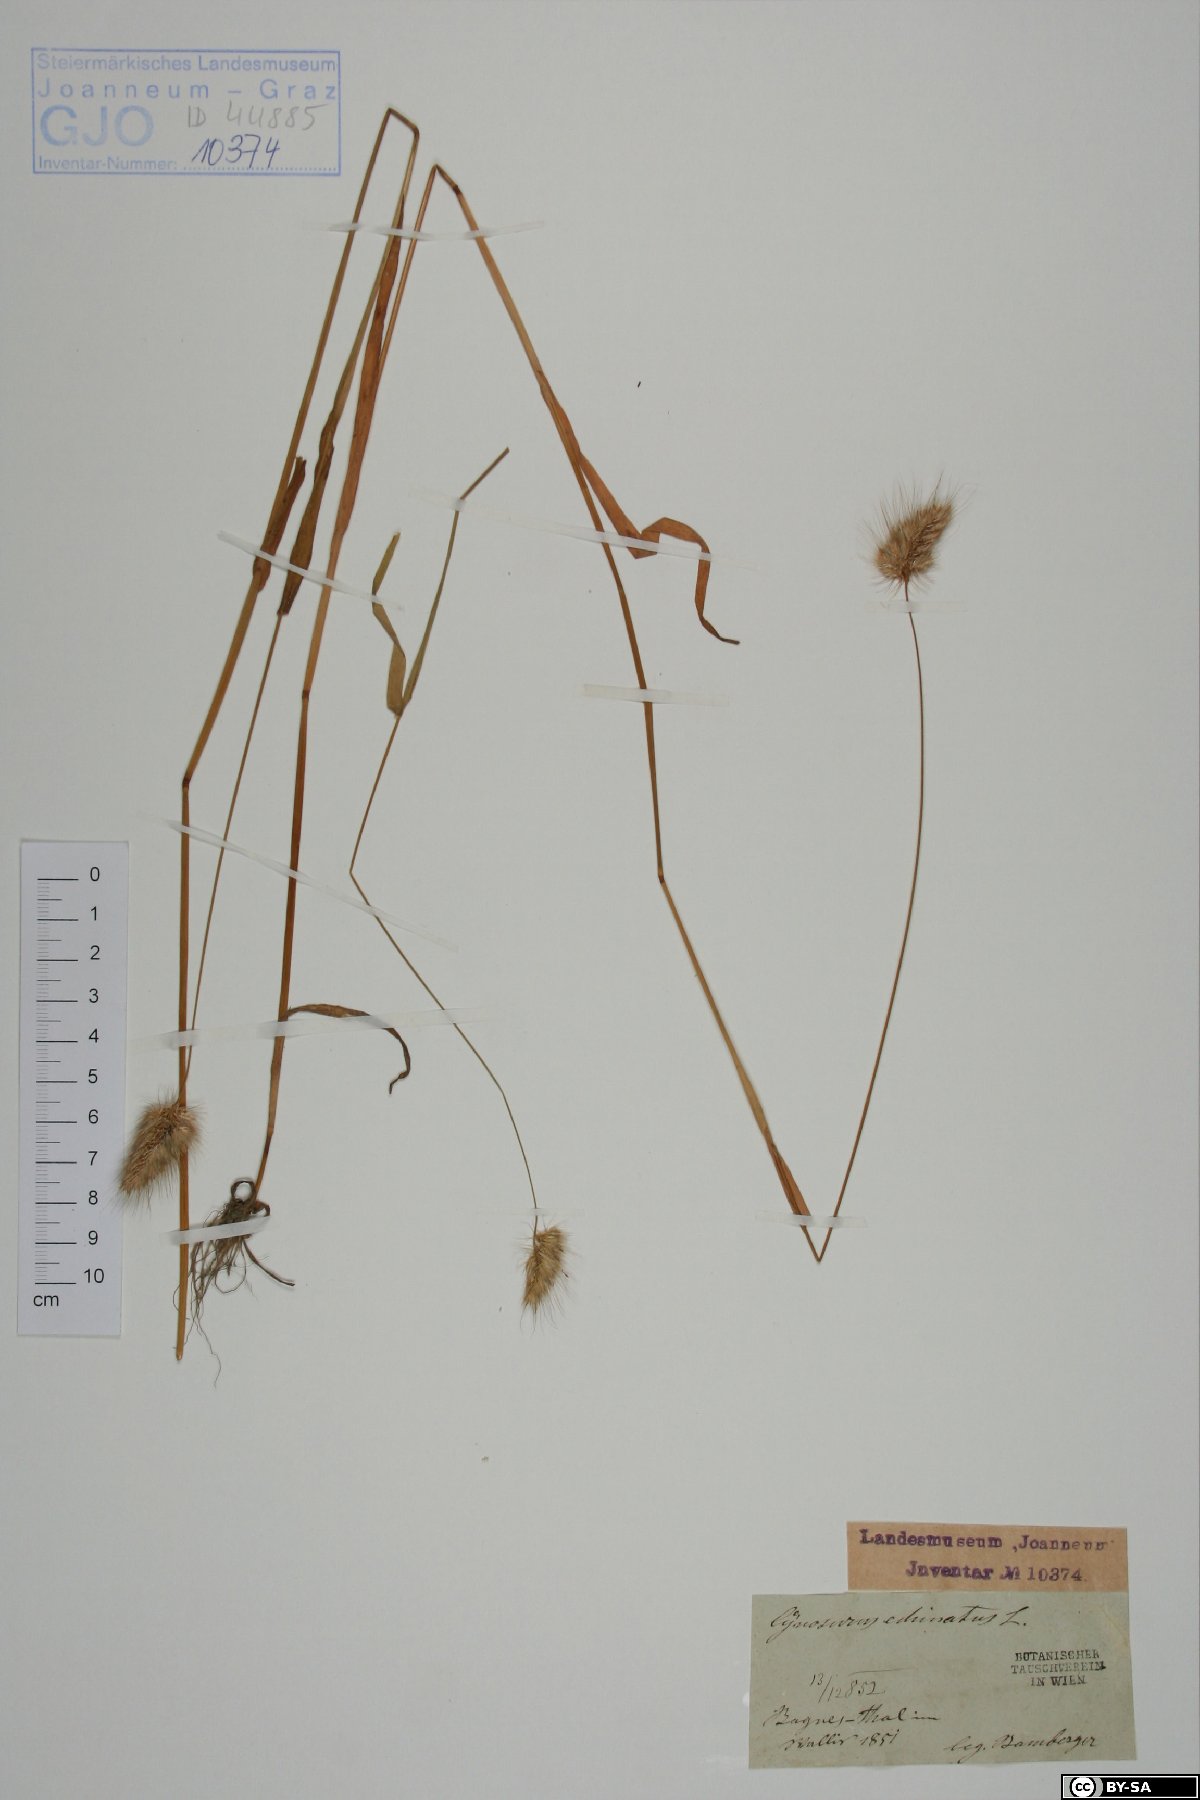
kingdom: Plantae
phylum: Tracheophyta
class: Liliopsida
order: Poales
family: Poaceae
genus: Cynosurus
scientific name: Cynosurus echinatus
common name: Rough dog's-tail
